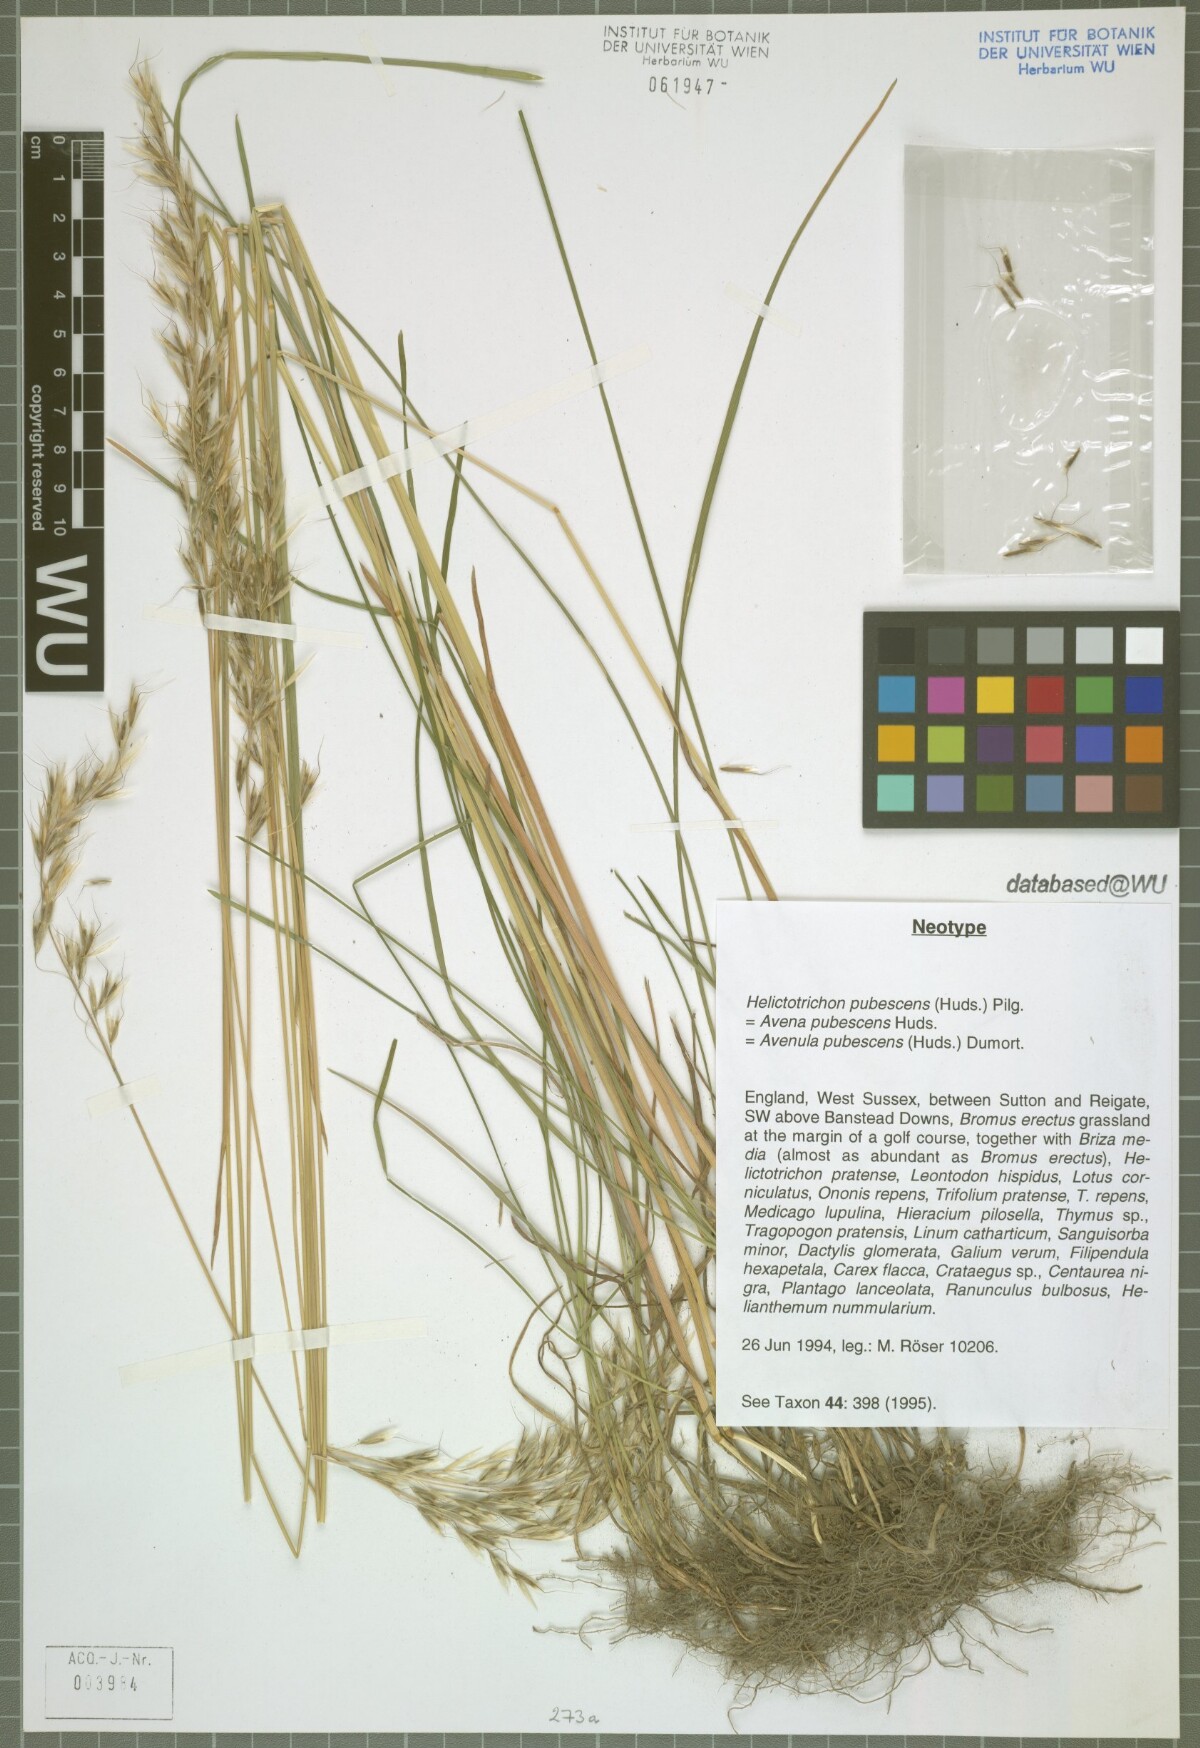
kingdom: Plantae
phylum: Tracheophyta
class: Liliopsida
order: Poales
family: Poaceae
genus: Avenula
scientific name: Avenula pubescens
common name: Downy alpine oatgrass
